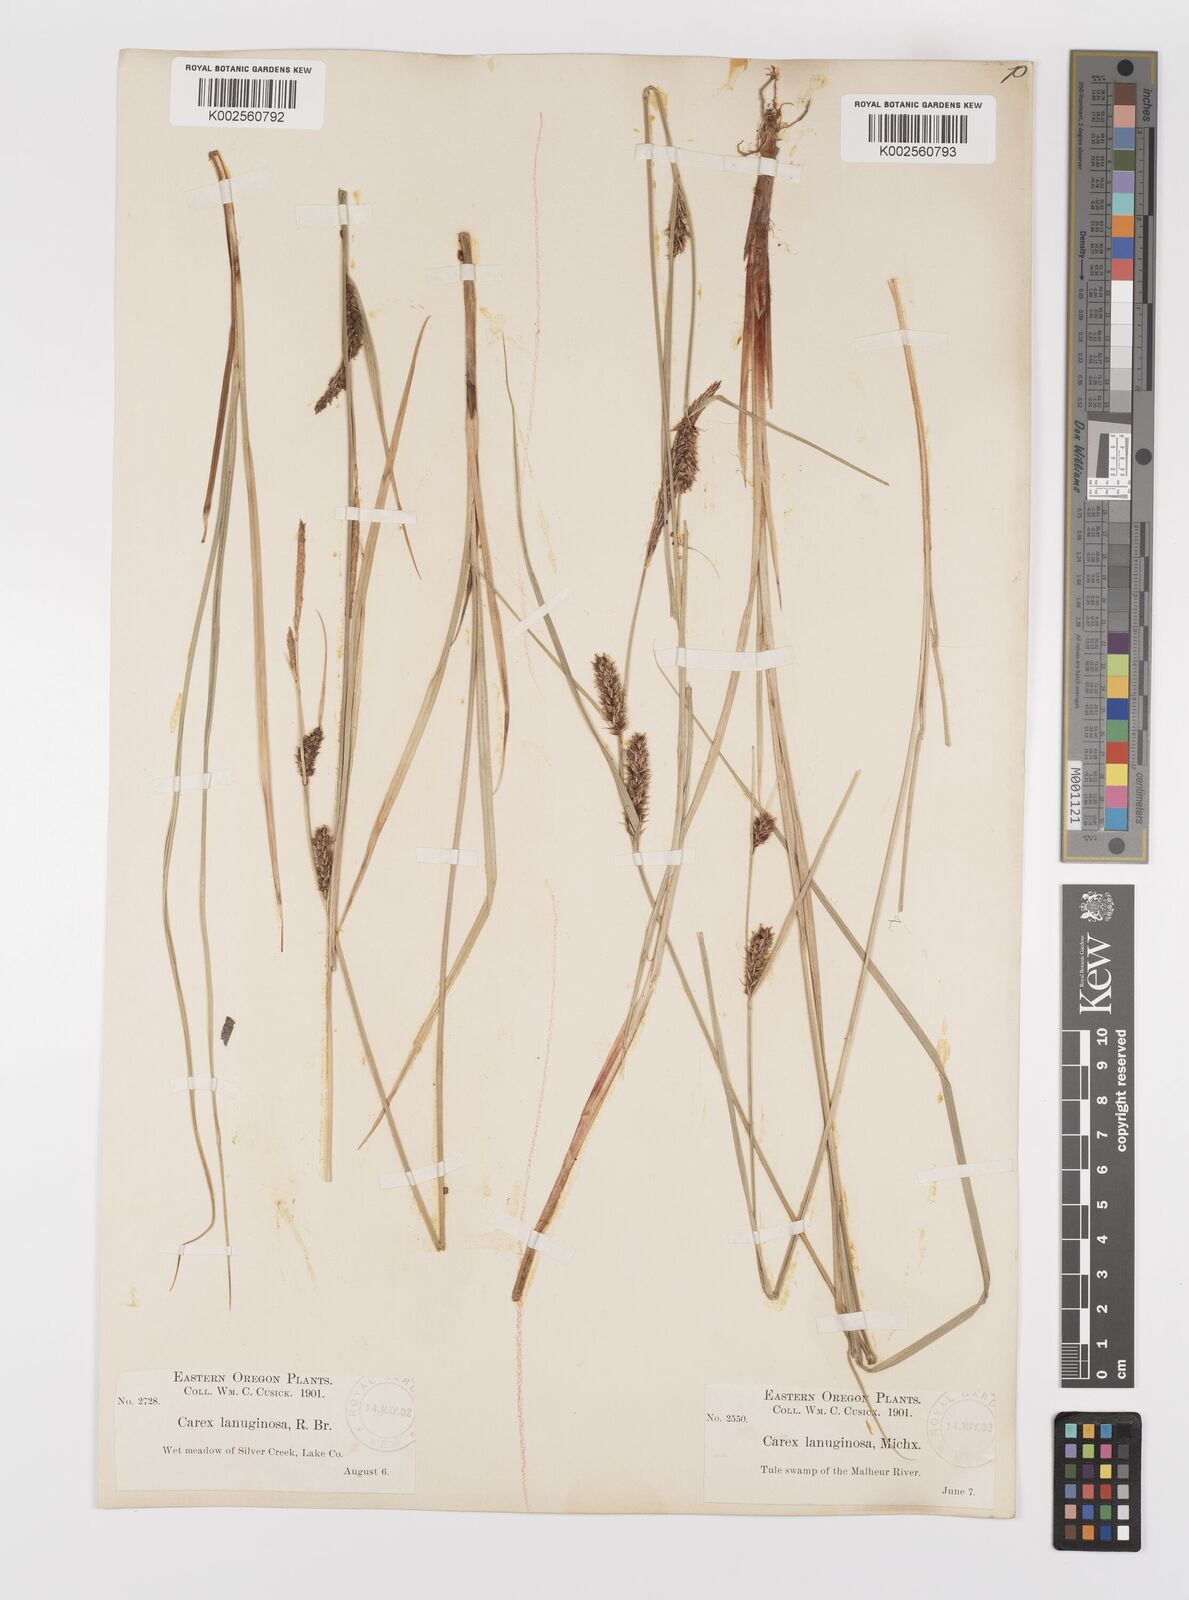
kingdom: Plantae
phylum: Tracheophyta
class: Liliopsida
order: Poales
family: Cyperaceae
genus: Carex
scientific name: Carex lasiocarpa
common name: Slender sedge
